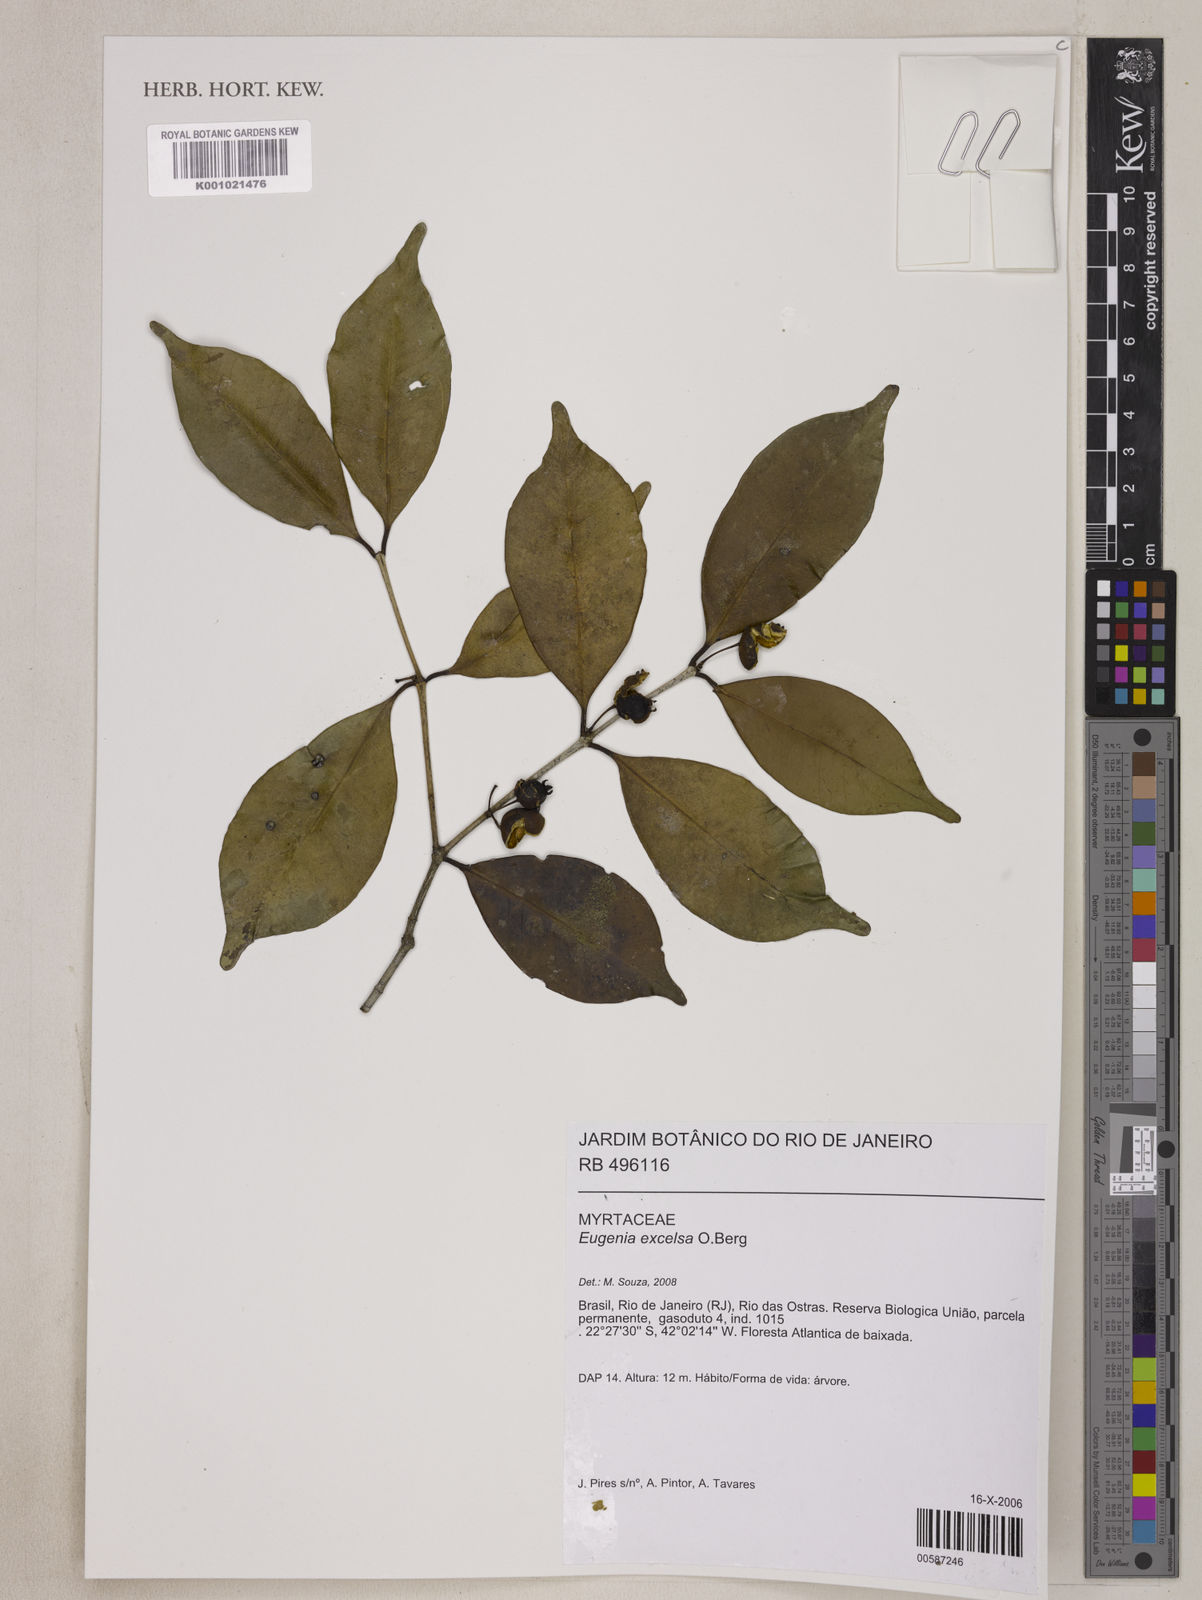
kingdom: Plantae
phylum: Tracheophyta
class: Magnoliopsida
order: Myrtales
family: Myrtaceae
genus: Eugenia
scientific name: Eugenia excelsa
